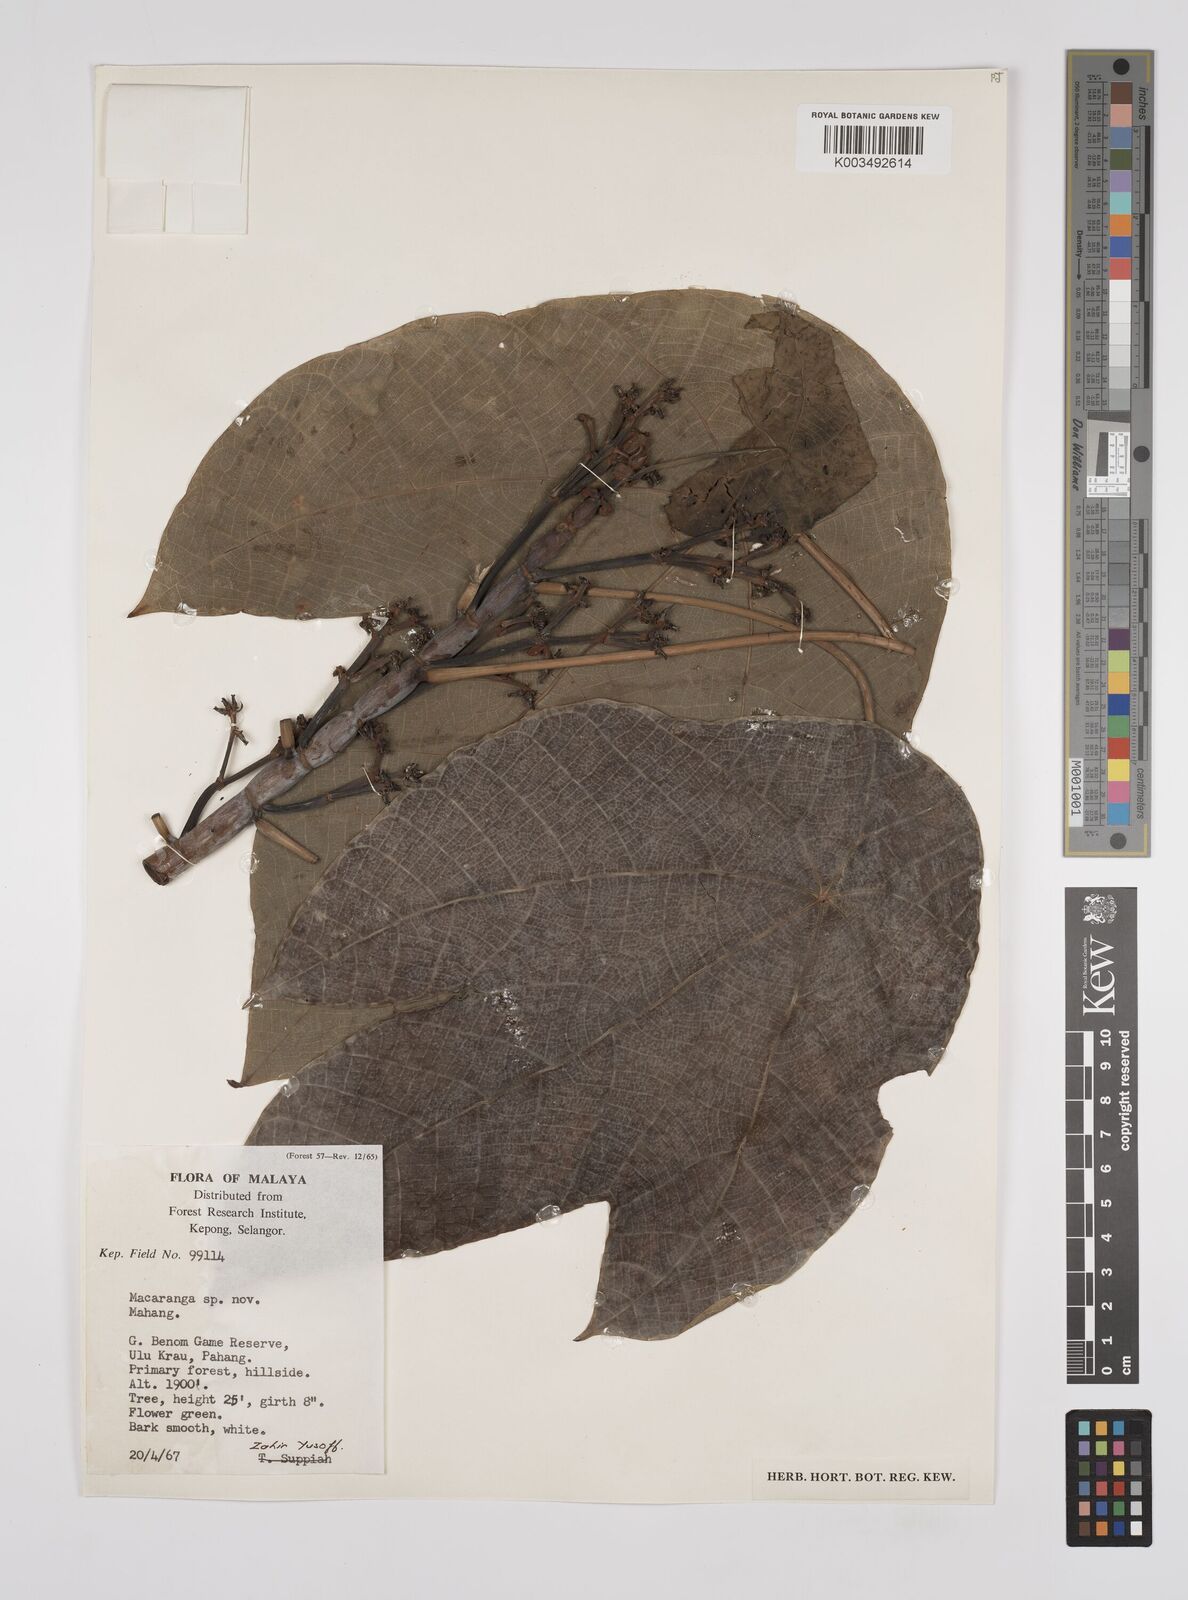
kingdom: Plantae
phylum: Tracheophyta
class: Magnoliopsida
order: Malpighiales
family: Euphorbiaceae
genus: Macaranga
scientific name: Macaranga constricta
